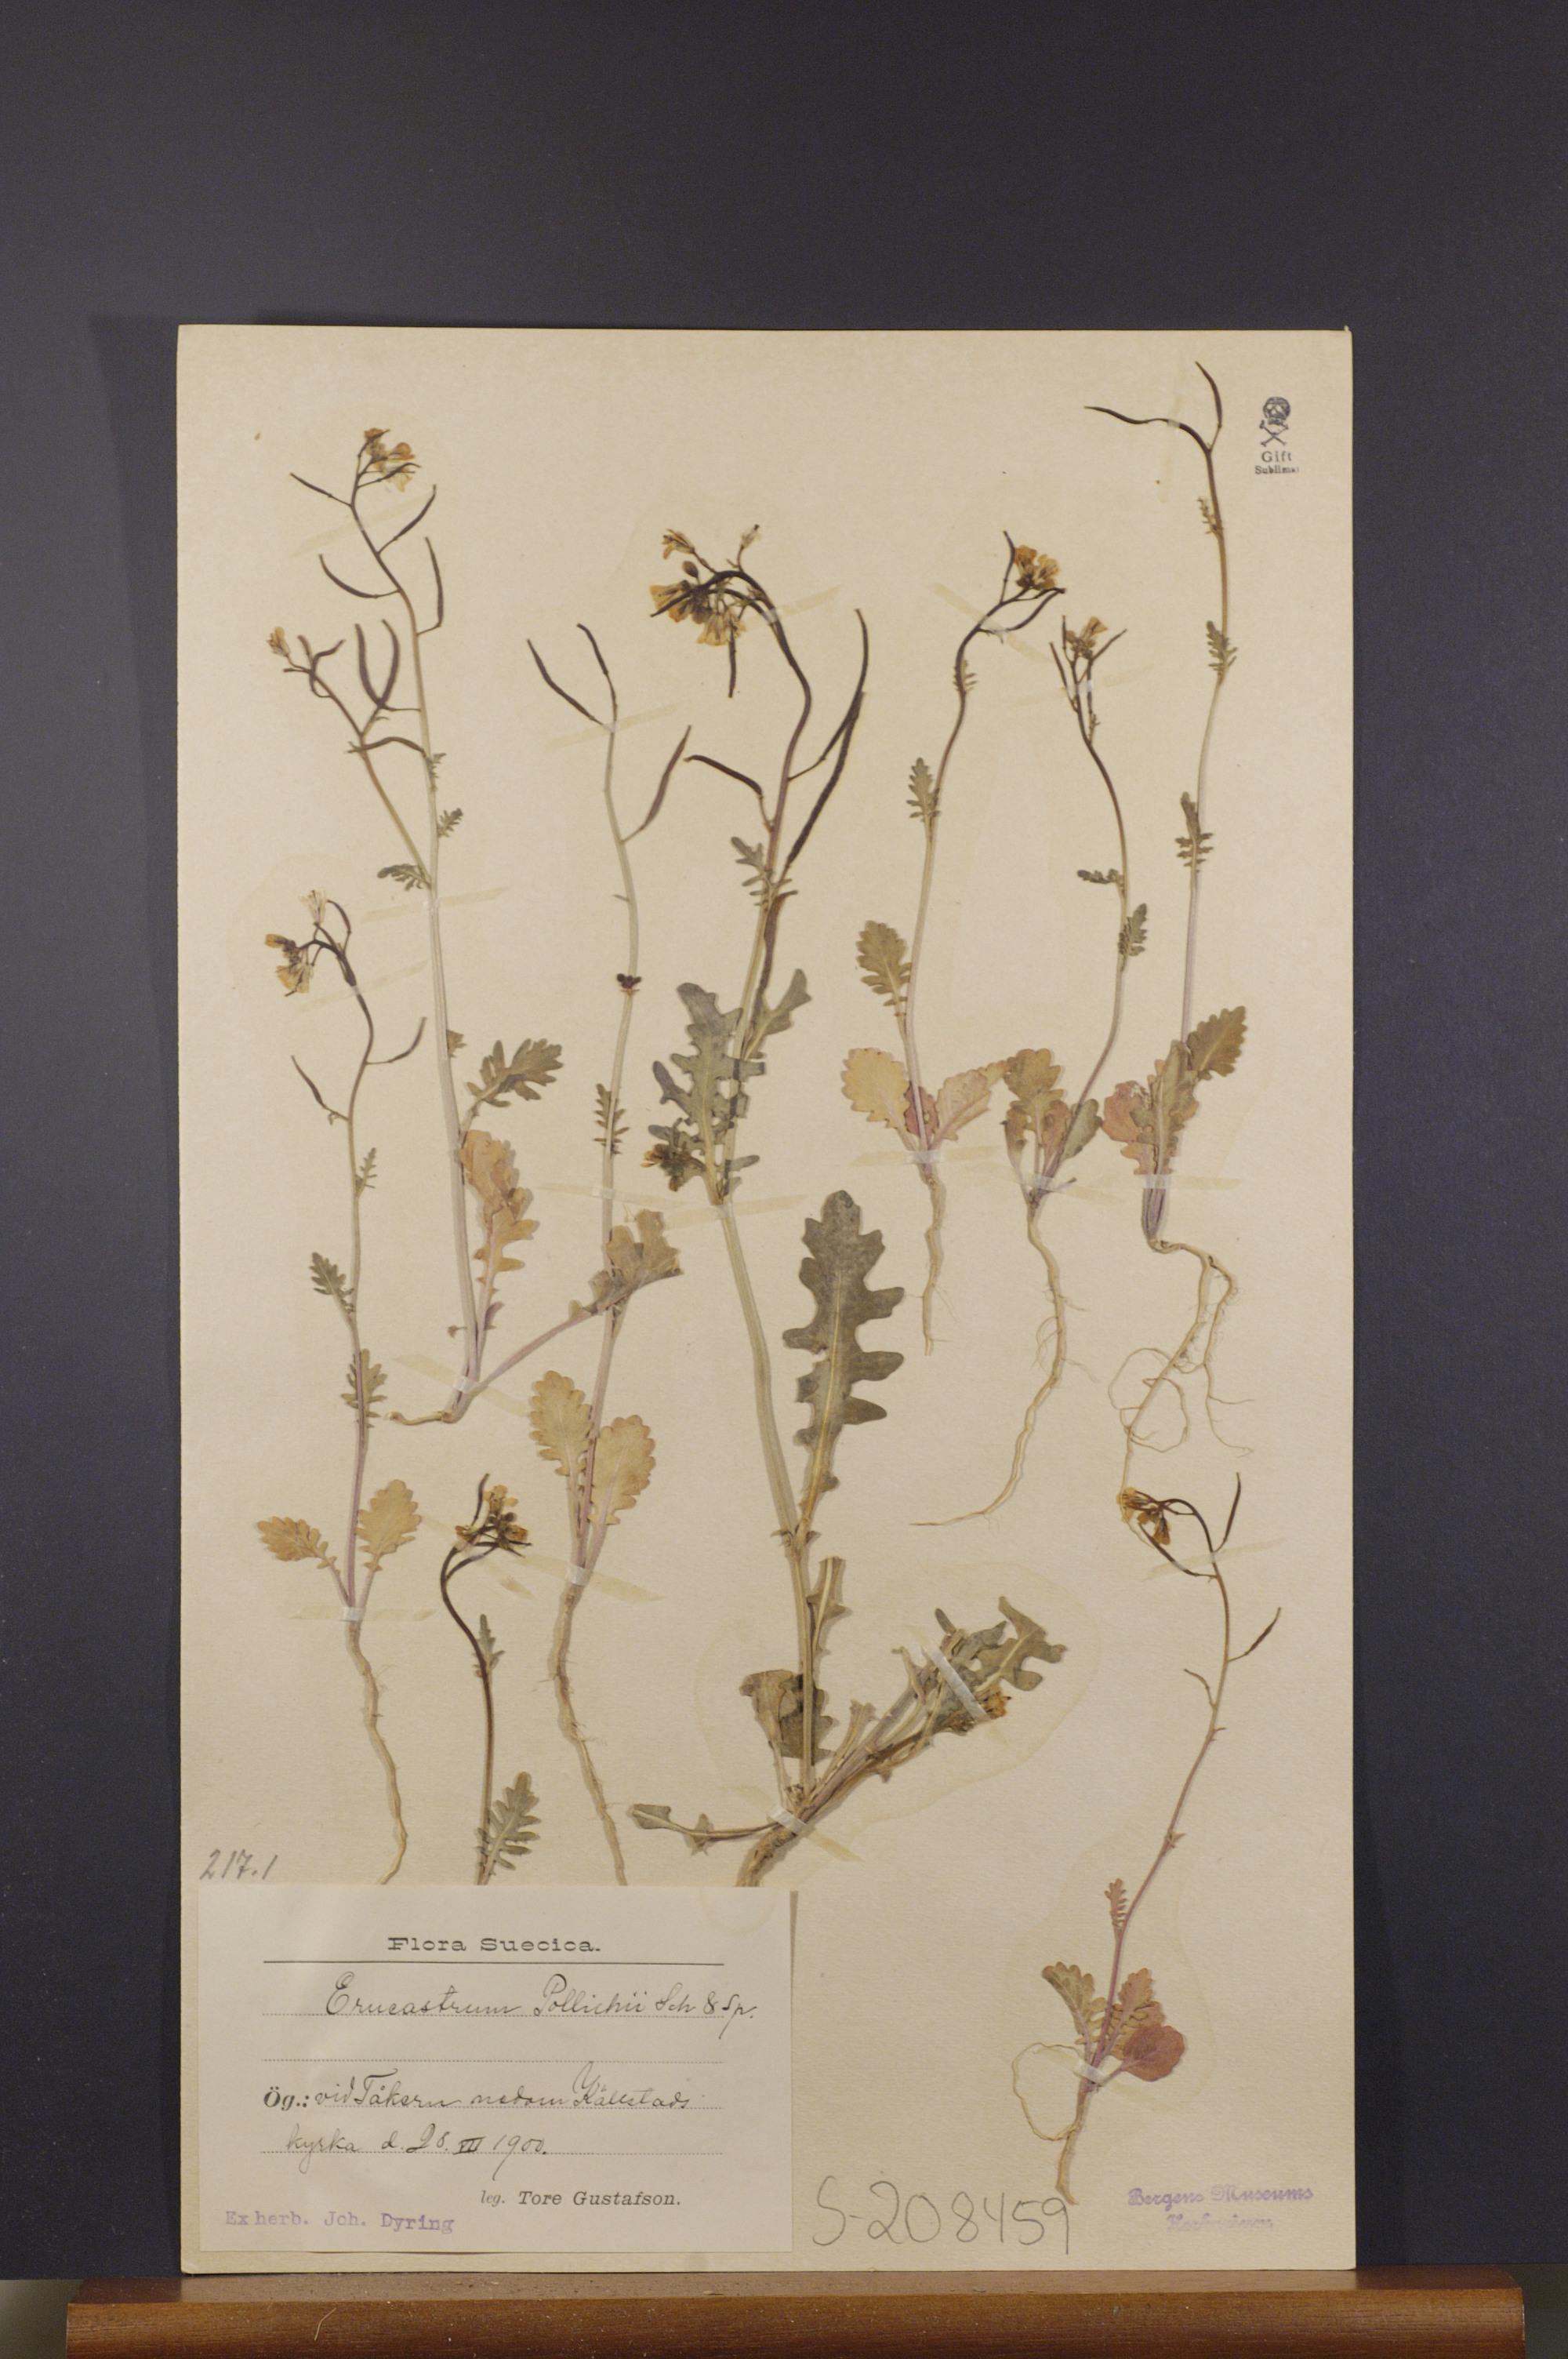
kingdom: Plantae
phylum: Tracheophyta
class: Magnoliopsida
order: Brassicales
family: Brassicaceae
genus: Erucastrum
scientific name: Erucastrum gallicum
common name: Hairy rocket
